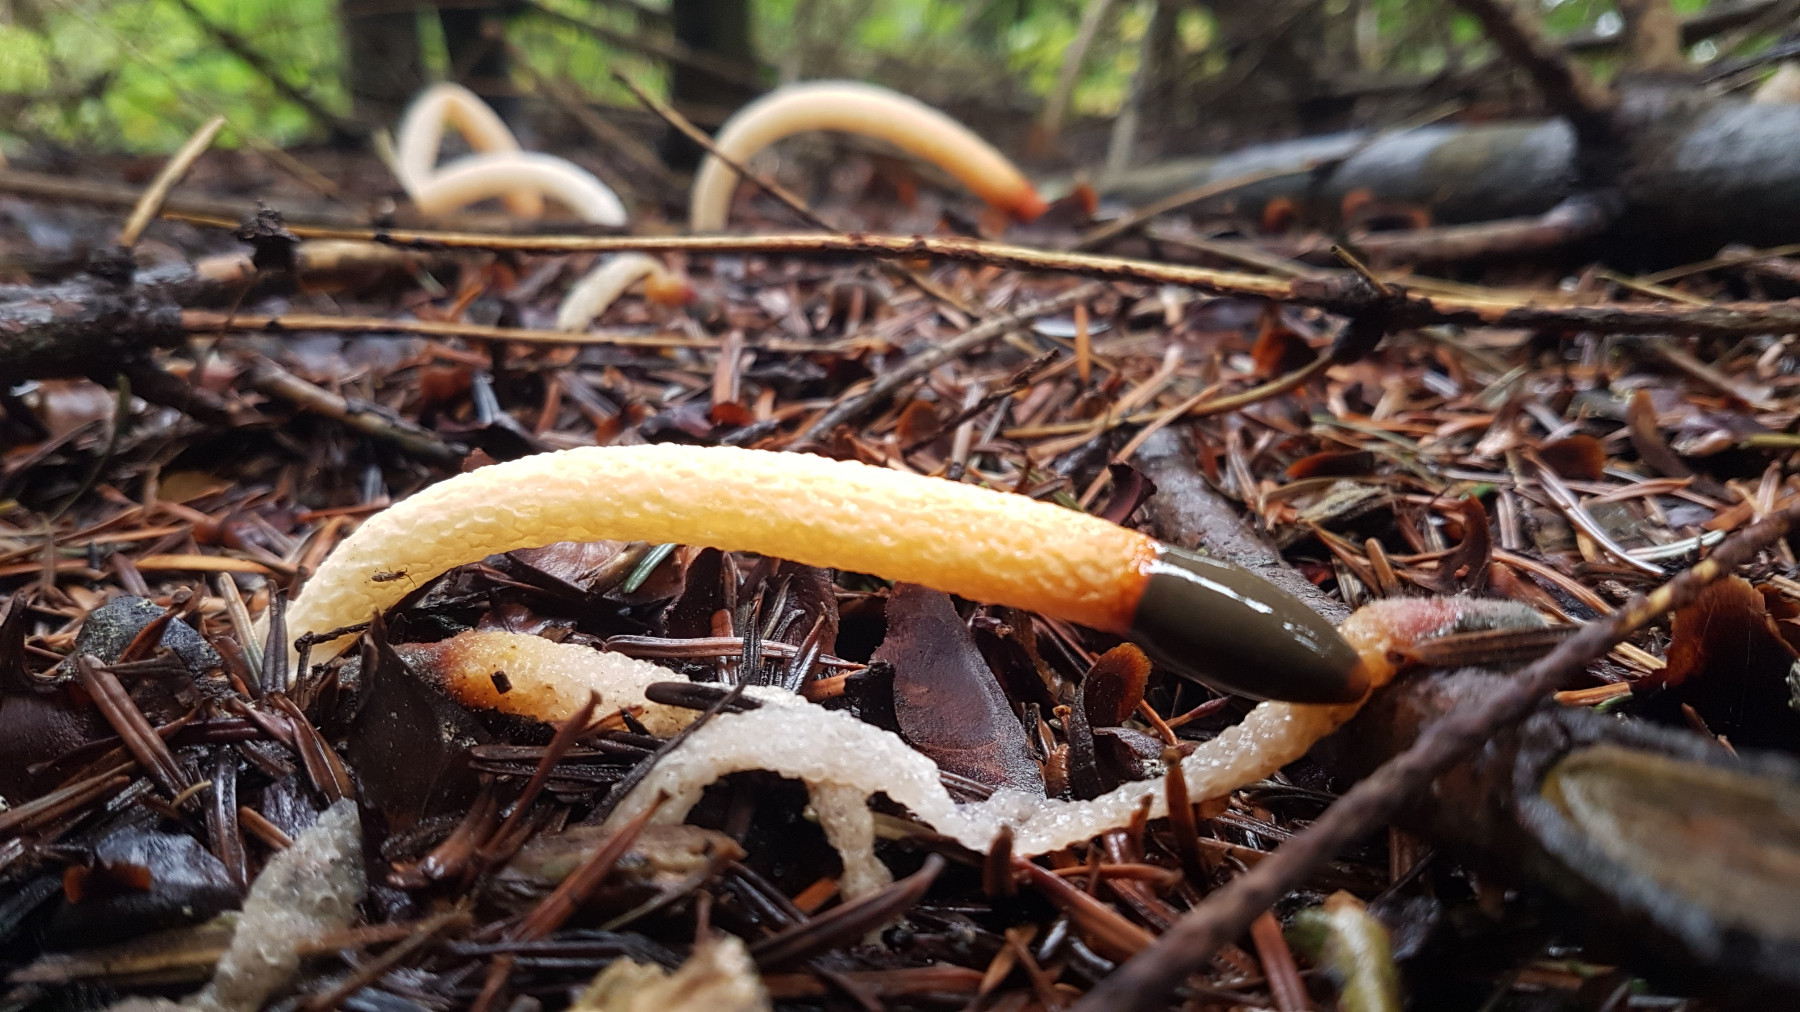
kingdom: Fungi
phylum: Basidiomycota
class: Agaricomycetes
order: Phallales
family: Phallaceae
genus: Mutinus
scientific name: Mutinus caninus
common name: hunde-stinksvamp
